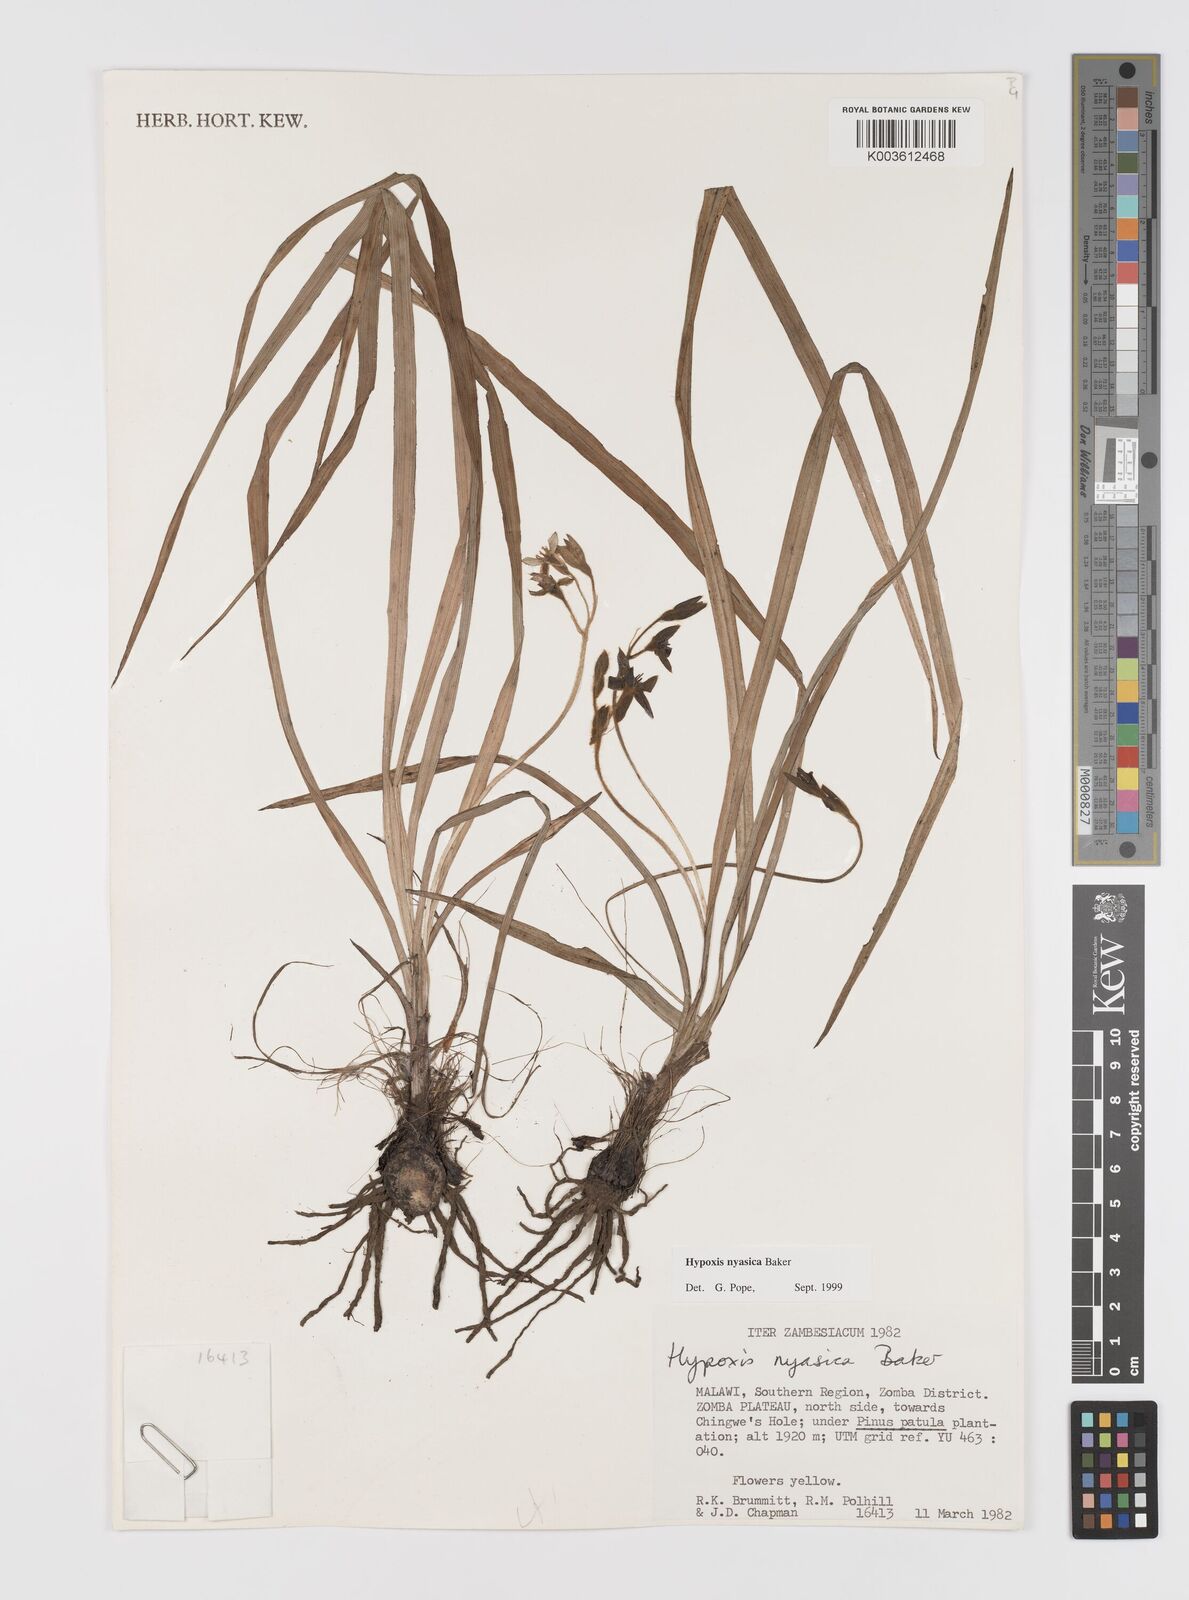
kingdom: Plantae
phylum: Tracheophyta
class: Liliopsida
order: Asparagales
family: Hypoxidaceae
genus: Hypoxis
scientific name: Hypoxis nyasica
